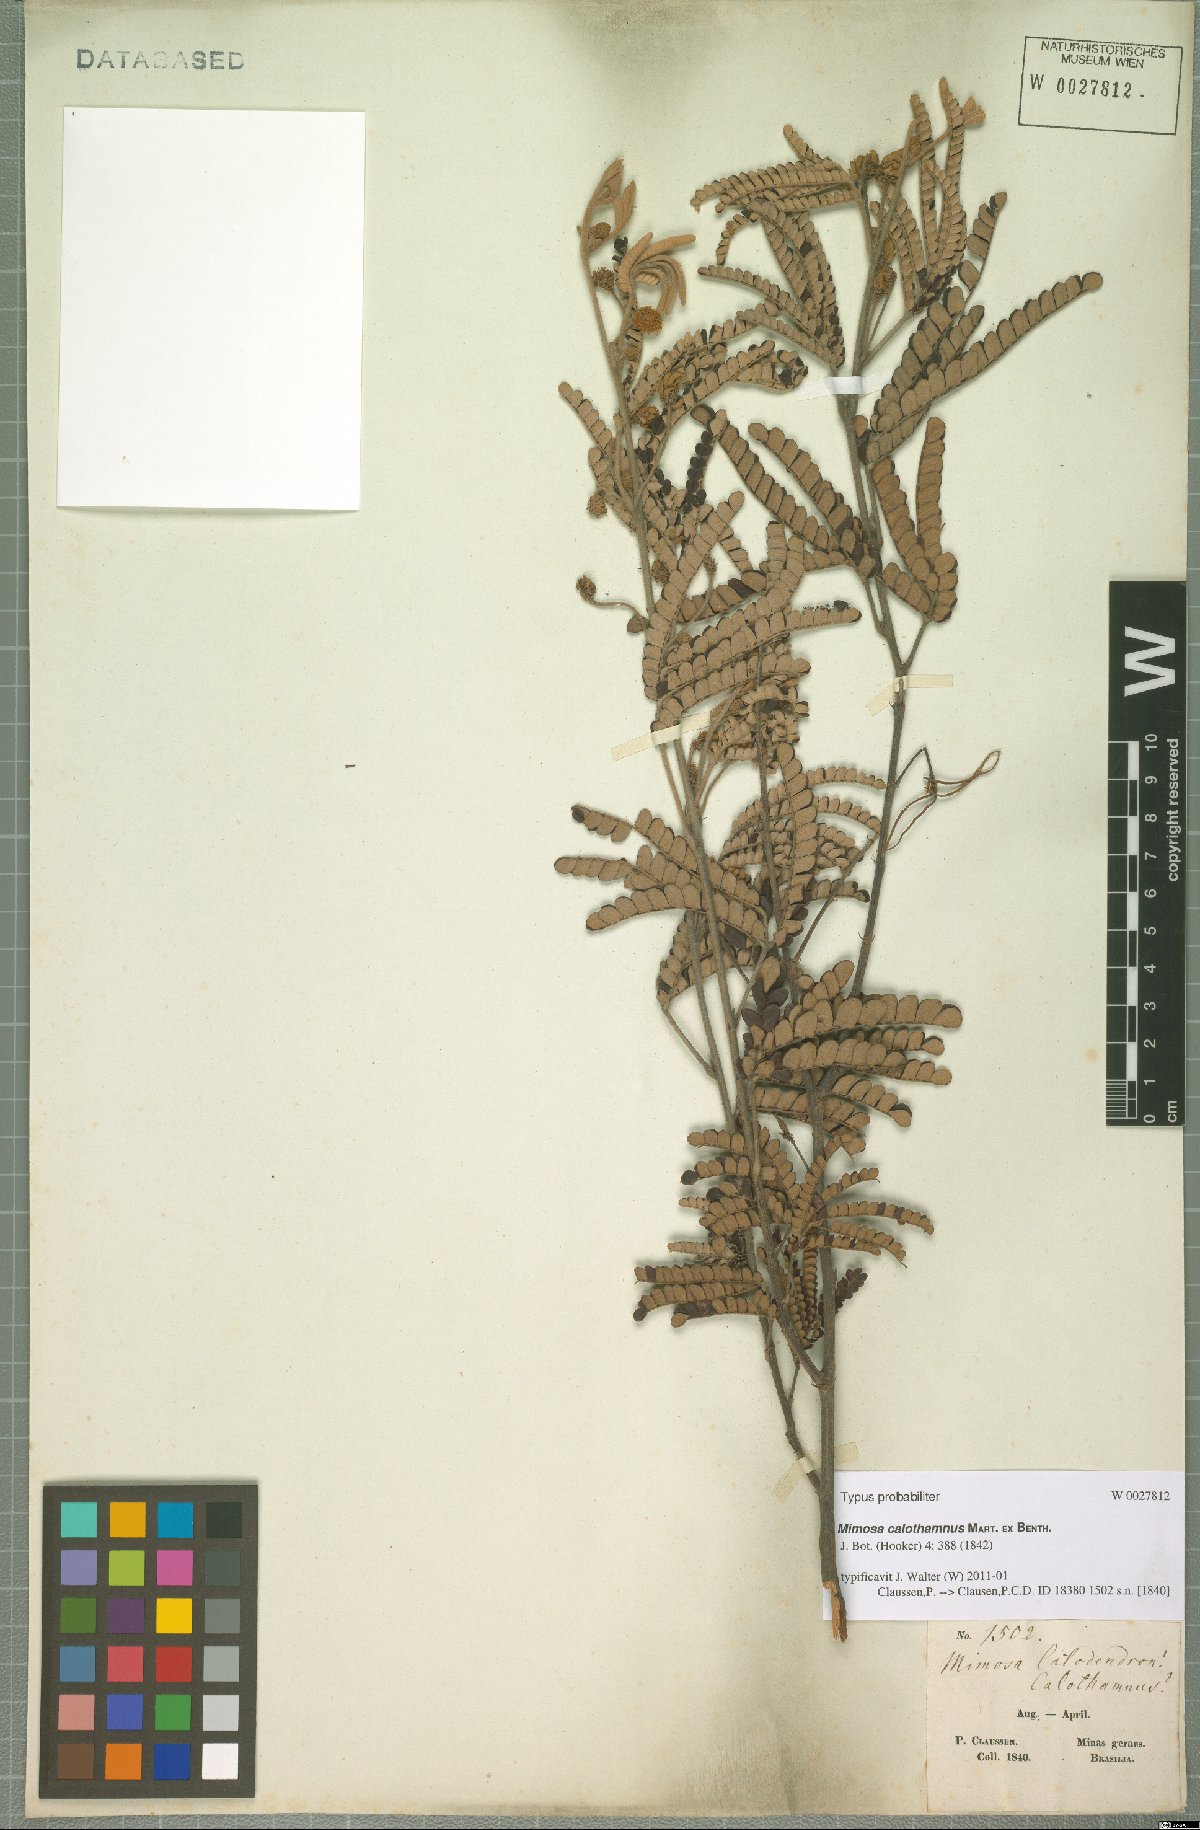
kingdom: Plantae
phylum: Tracheophyta
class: Magnoliopsida
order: Fabales
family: Fabaceae
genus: Mimosa
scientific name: Mimosa calothamnus
